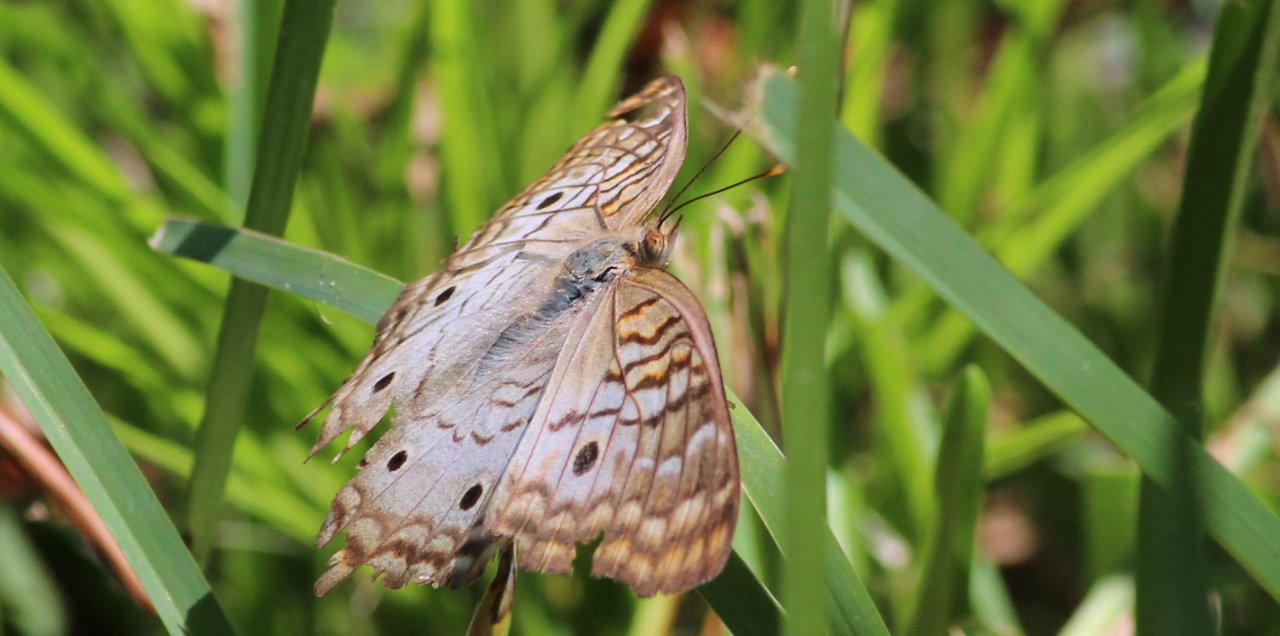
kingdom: Animalia
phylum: Arthropoda
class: Insecta
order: Lepidoptera
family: Nymphalidae
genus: Anartia
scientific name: Anartia jatrophae
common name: White Peacock
